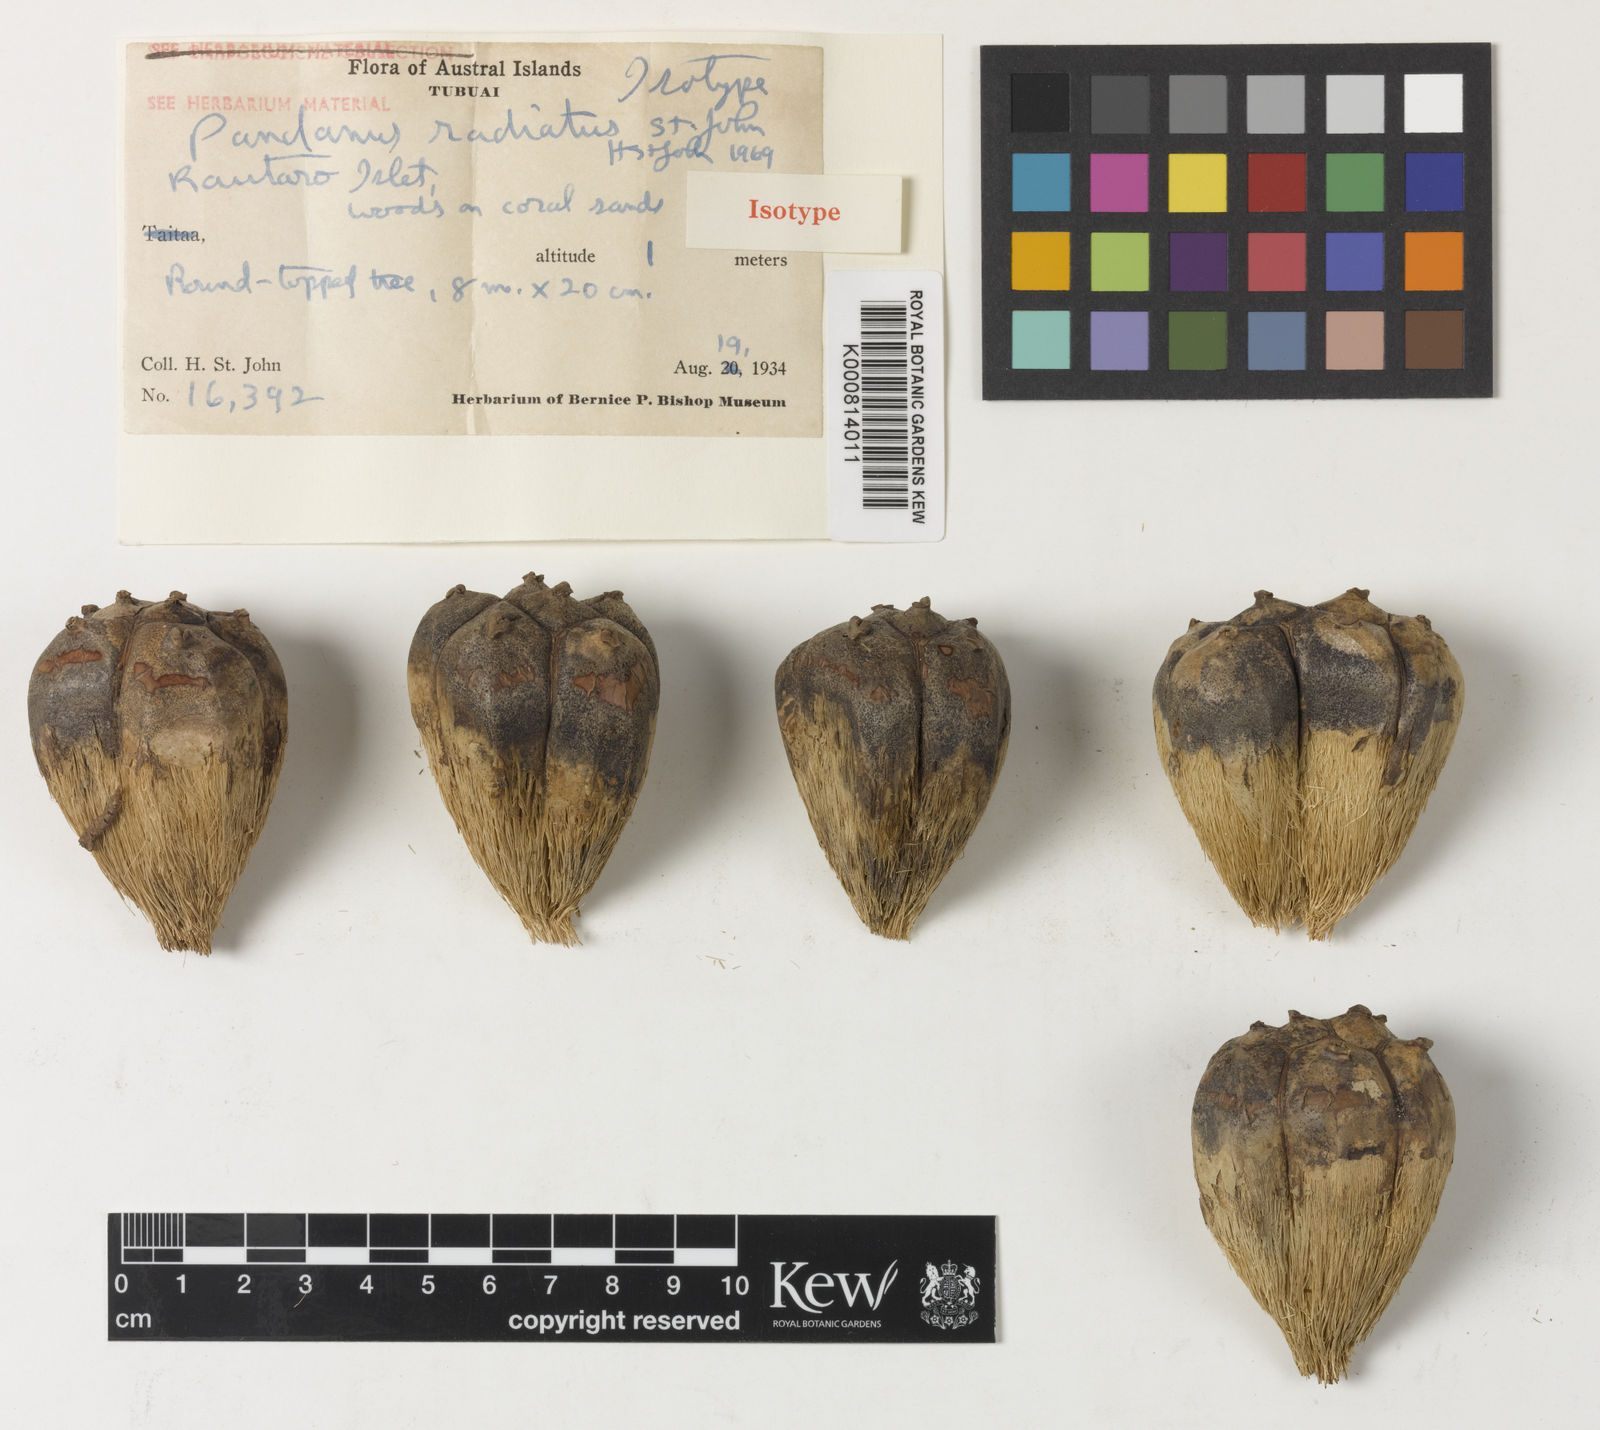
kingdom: Plantae
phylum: Tracheophyta
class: Liliopsida
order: Pandanales
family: Pandanaceae
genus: Pandanus
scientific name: Pandanus tectorius
